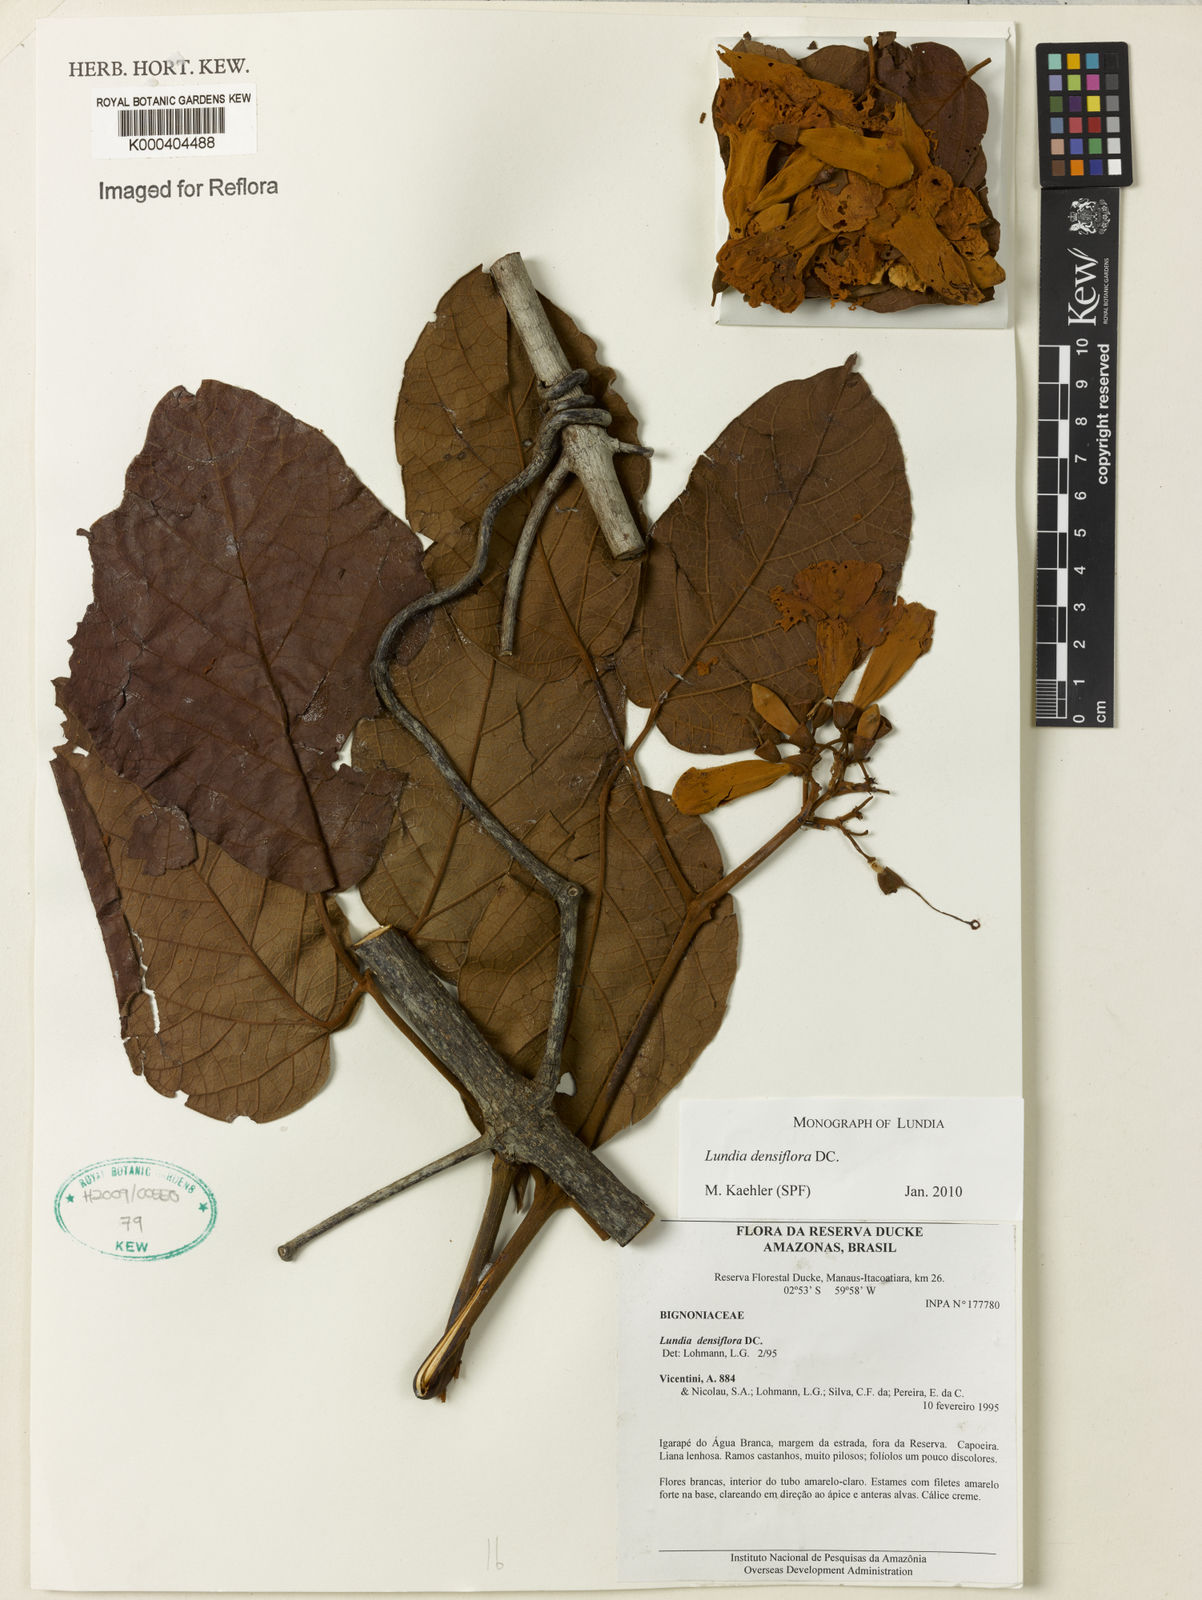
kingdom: Plantae
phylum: Tracheophyta
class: Magnoliopsida
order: Lamiales
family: Bignoniaceae
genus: Lundia
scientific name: Lundia densiflora
